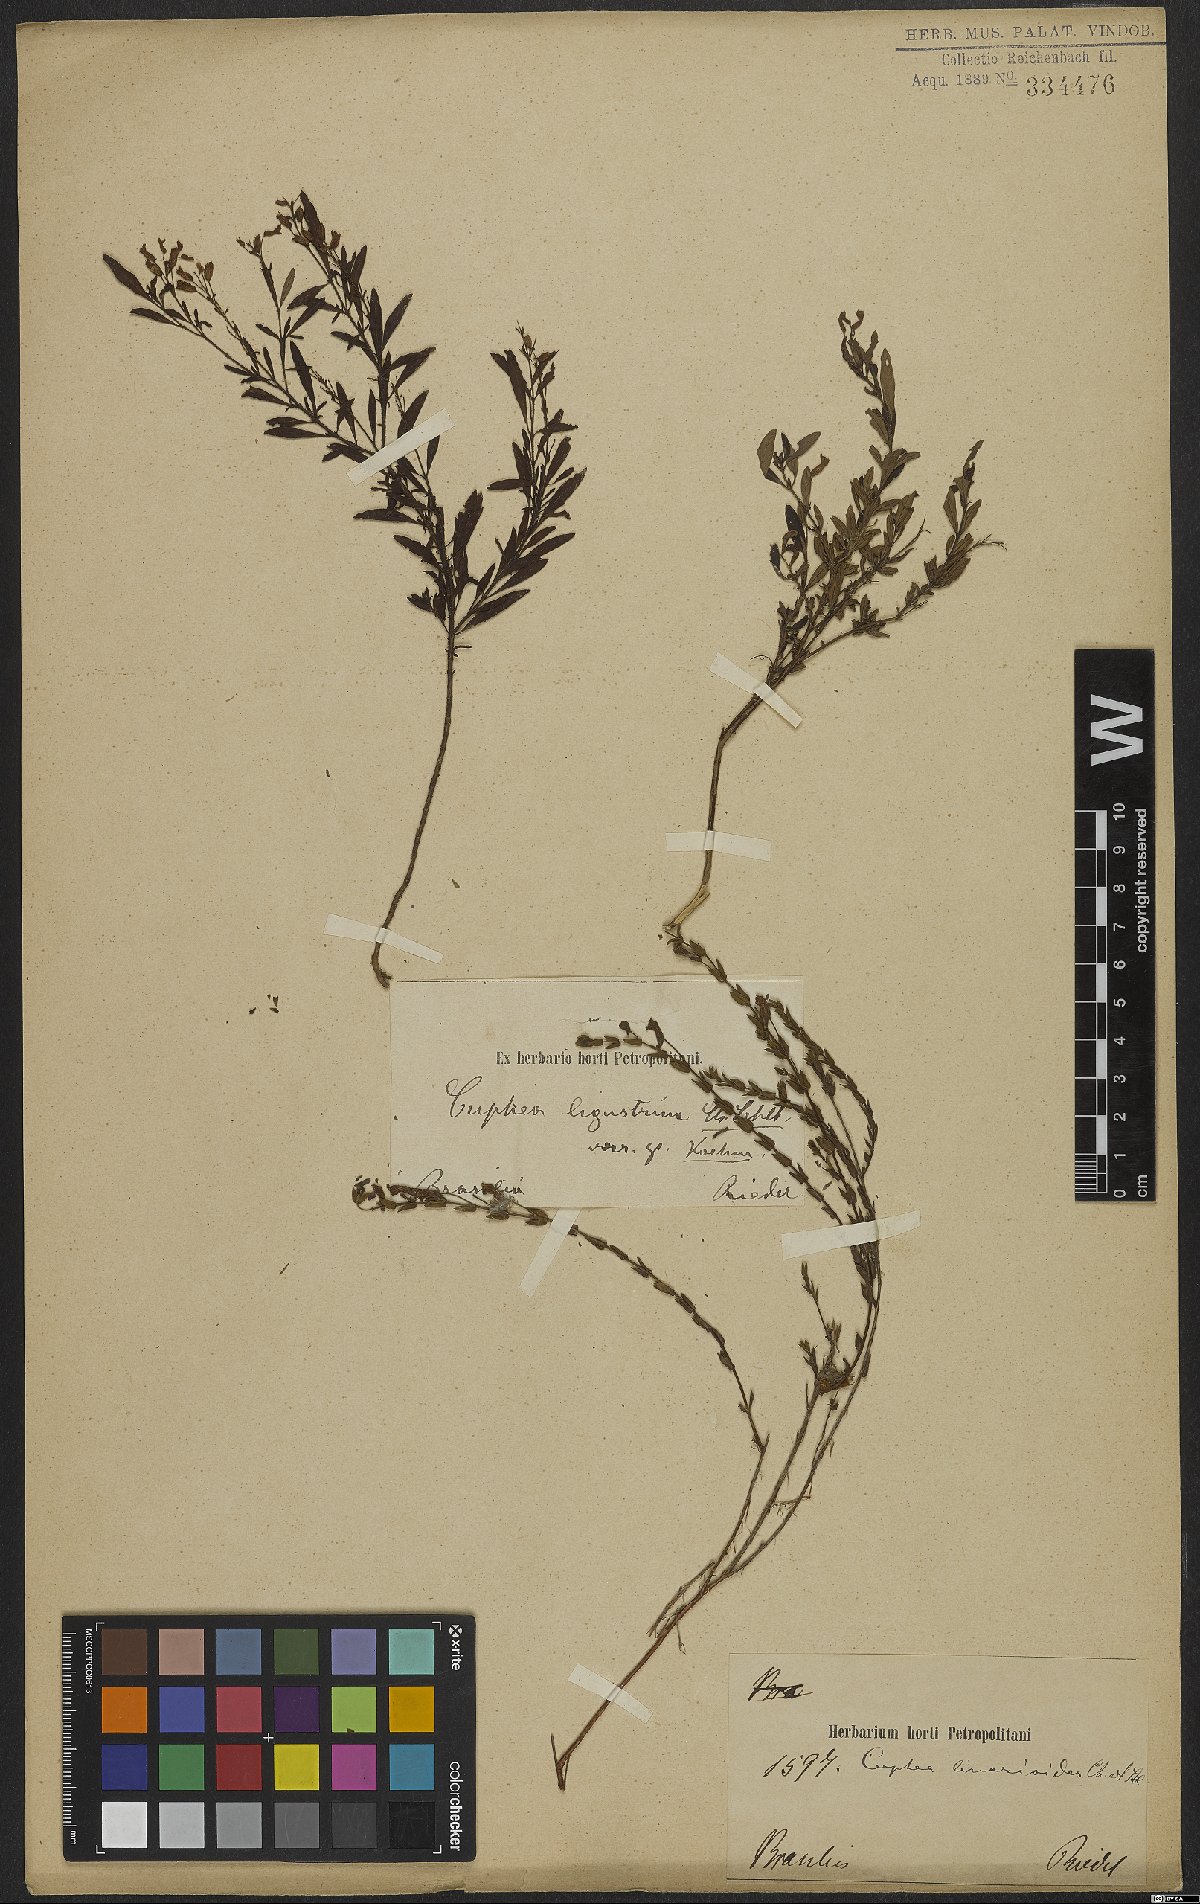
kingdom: Plantae
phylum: Tracheophyta
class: Magnoliopsida
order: Myrtales
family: Lythraceae
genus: Cuphea
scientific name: Cuphea linarioides
